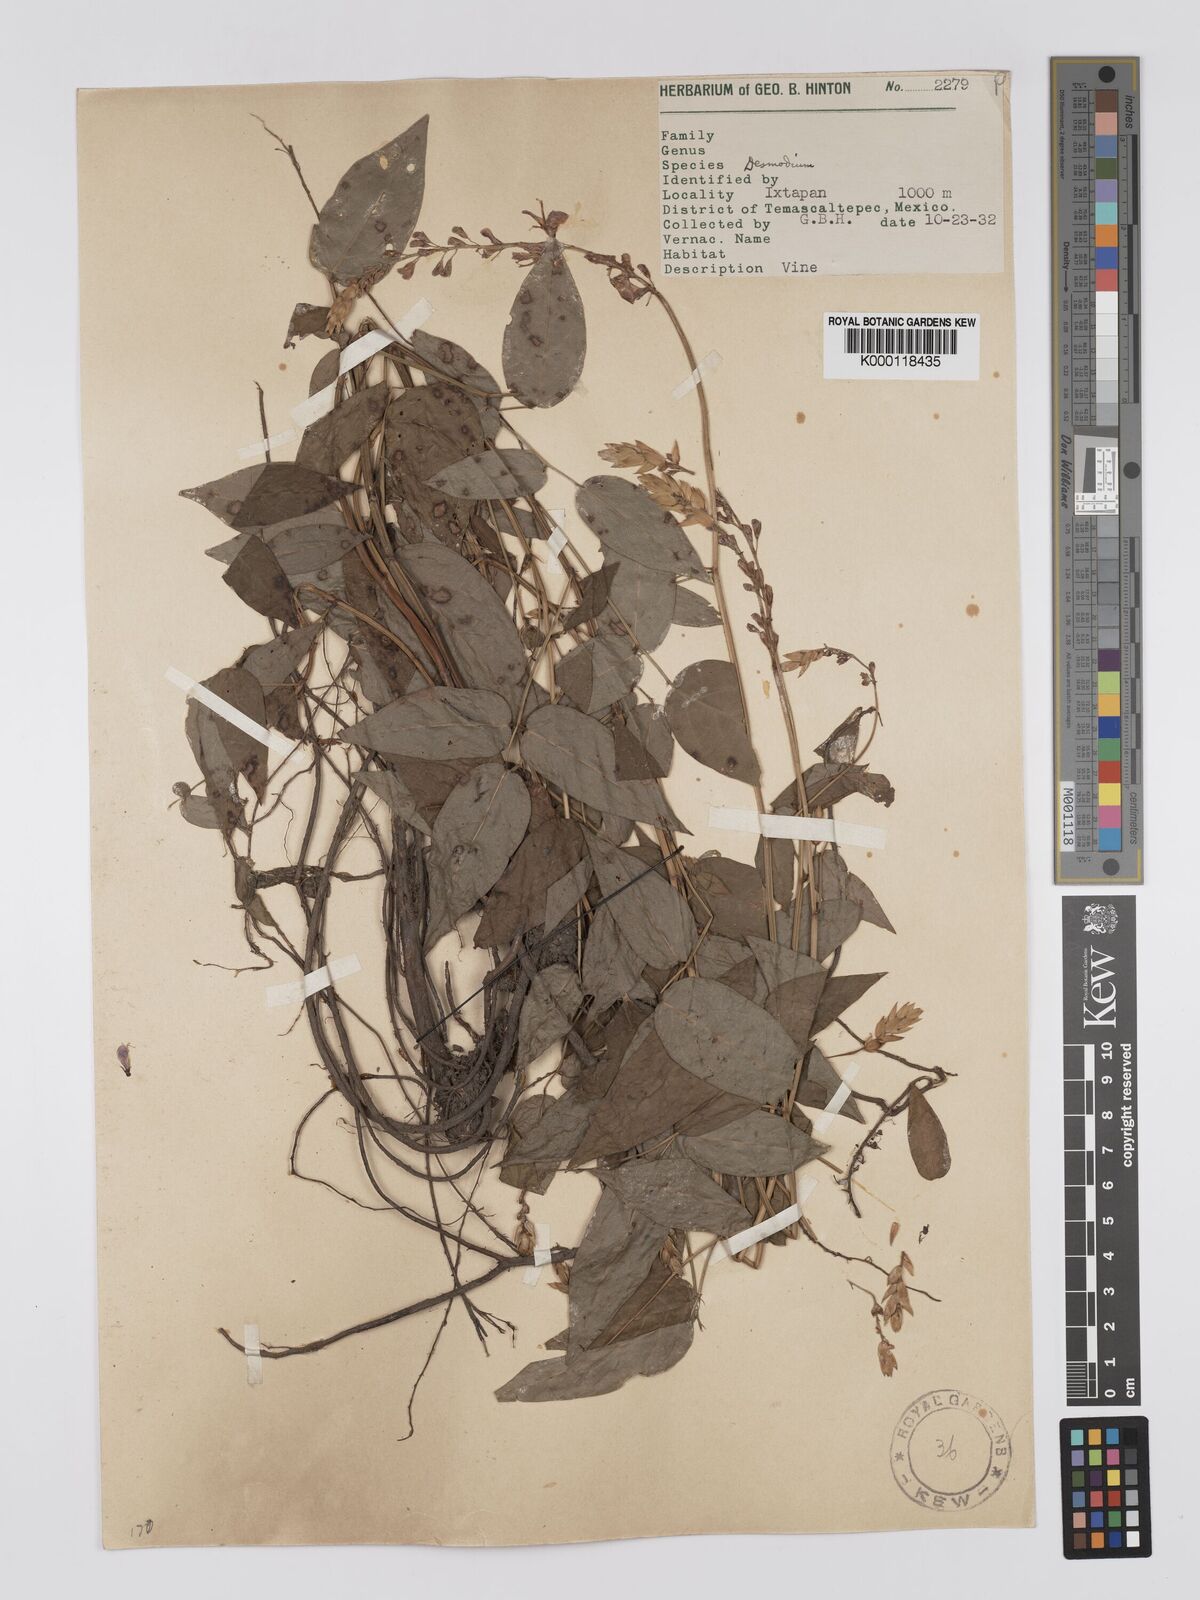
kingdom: Plantae
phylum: Tracheophyta
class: Magnoliopsida
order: Fabales
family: Fabaceae
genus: Desmodium
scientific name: Desmodium
